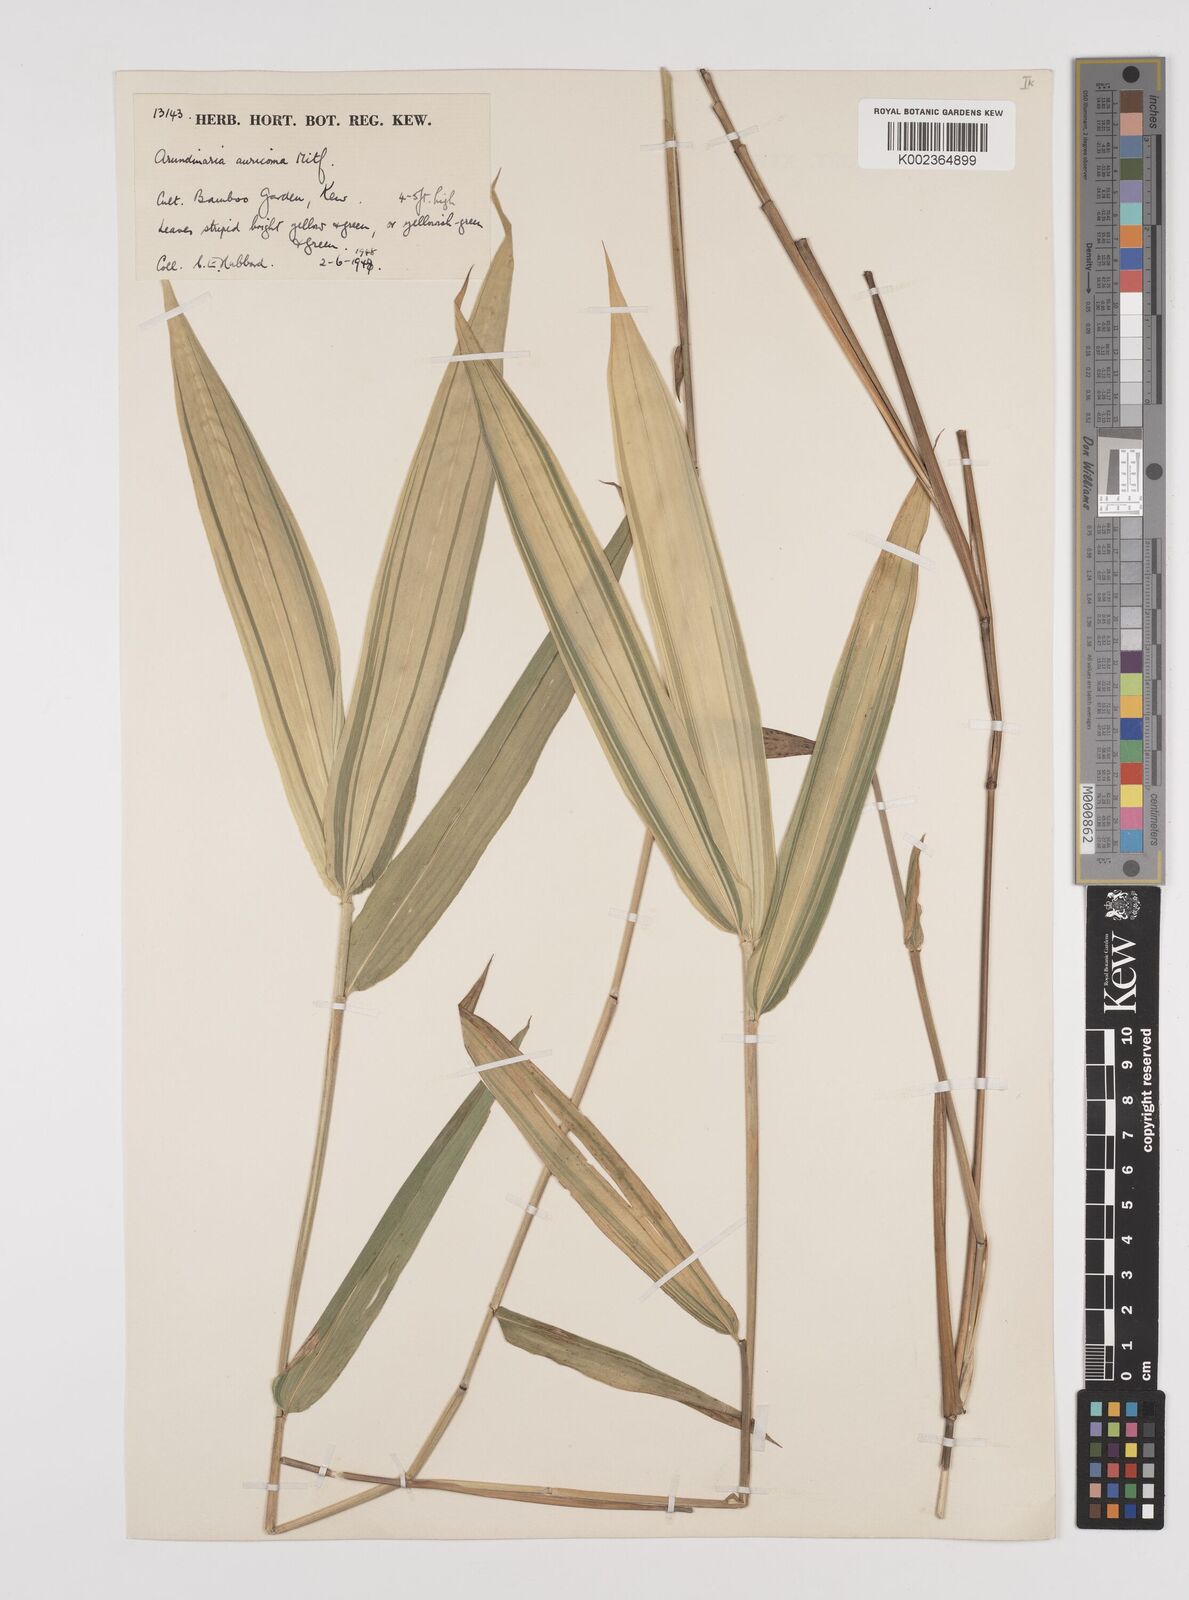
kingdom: Plantae
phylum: Tracheophyta
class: Liliopsida
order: Poales
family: Poaceae
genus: Pleioblastus
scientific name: Pleioblastus viridistriatus
